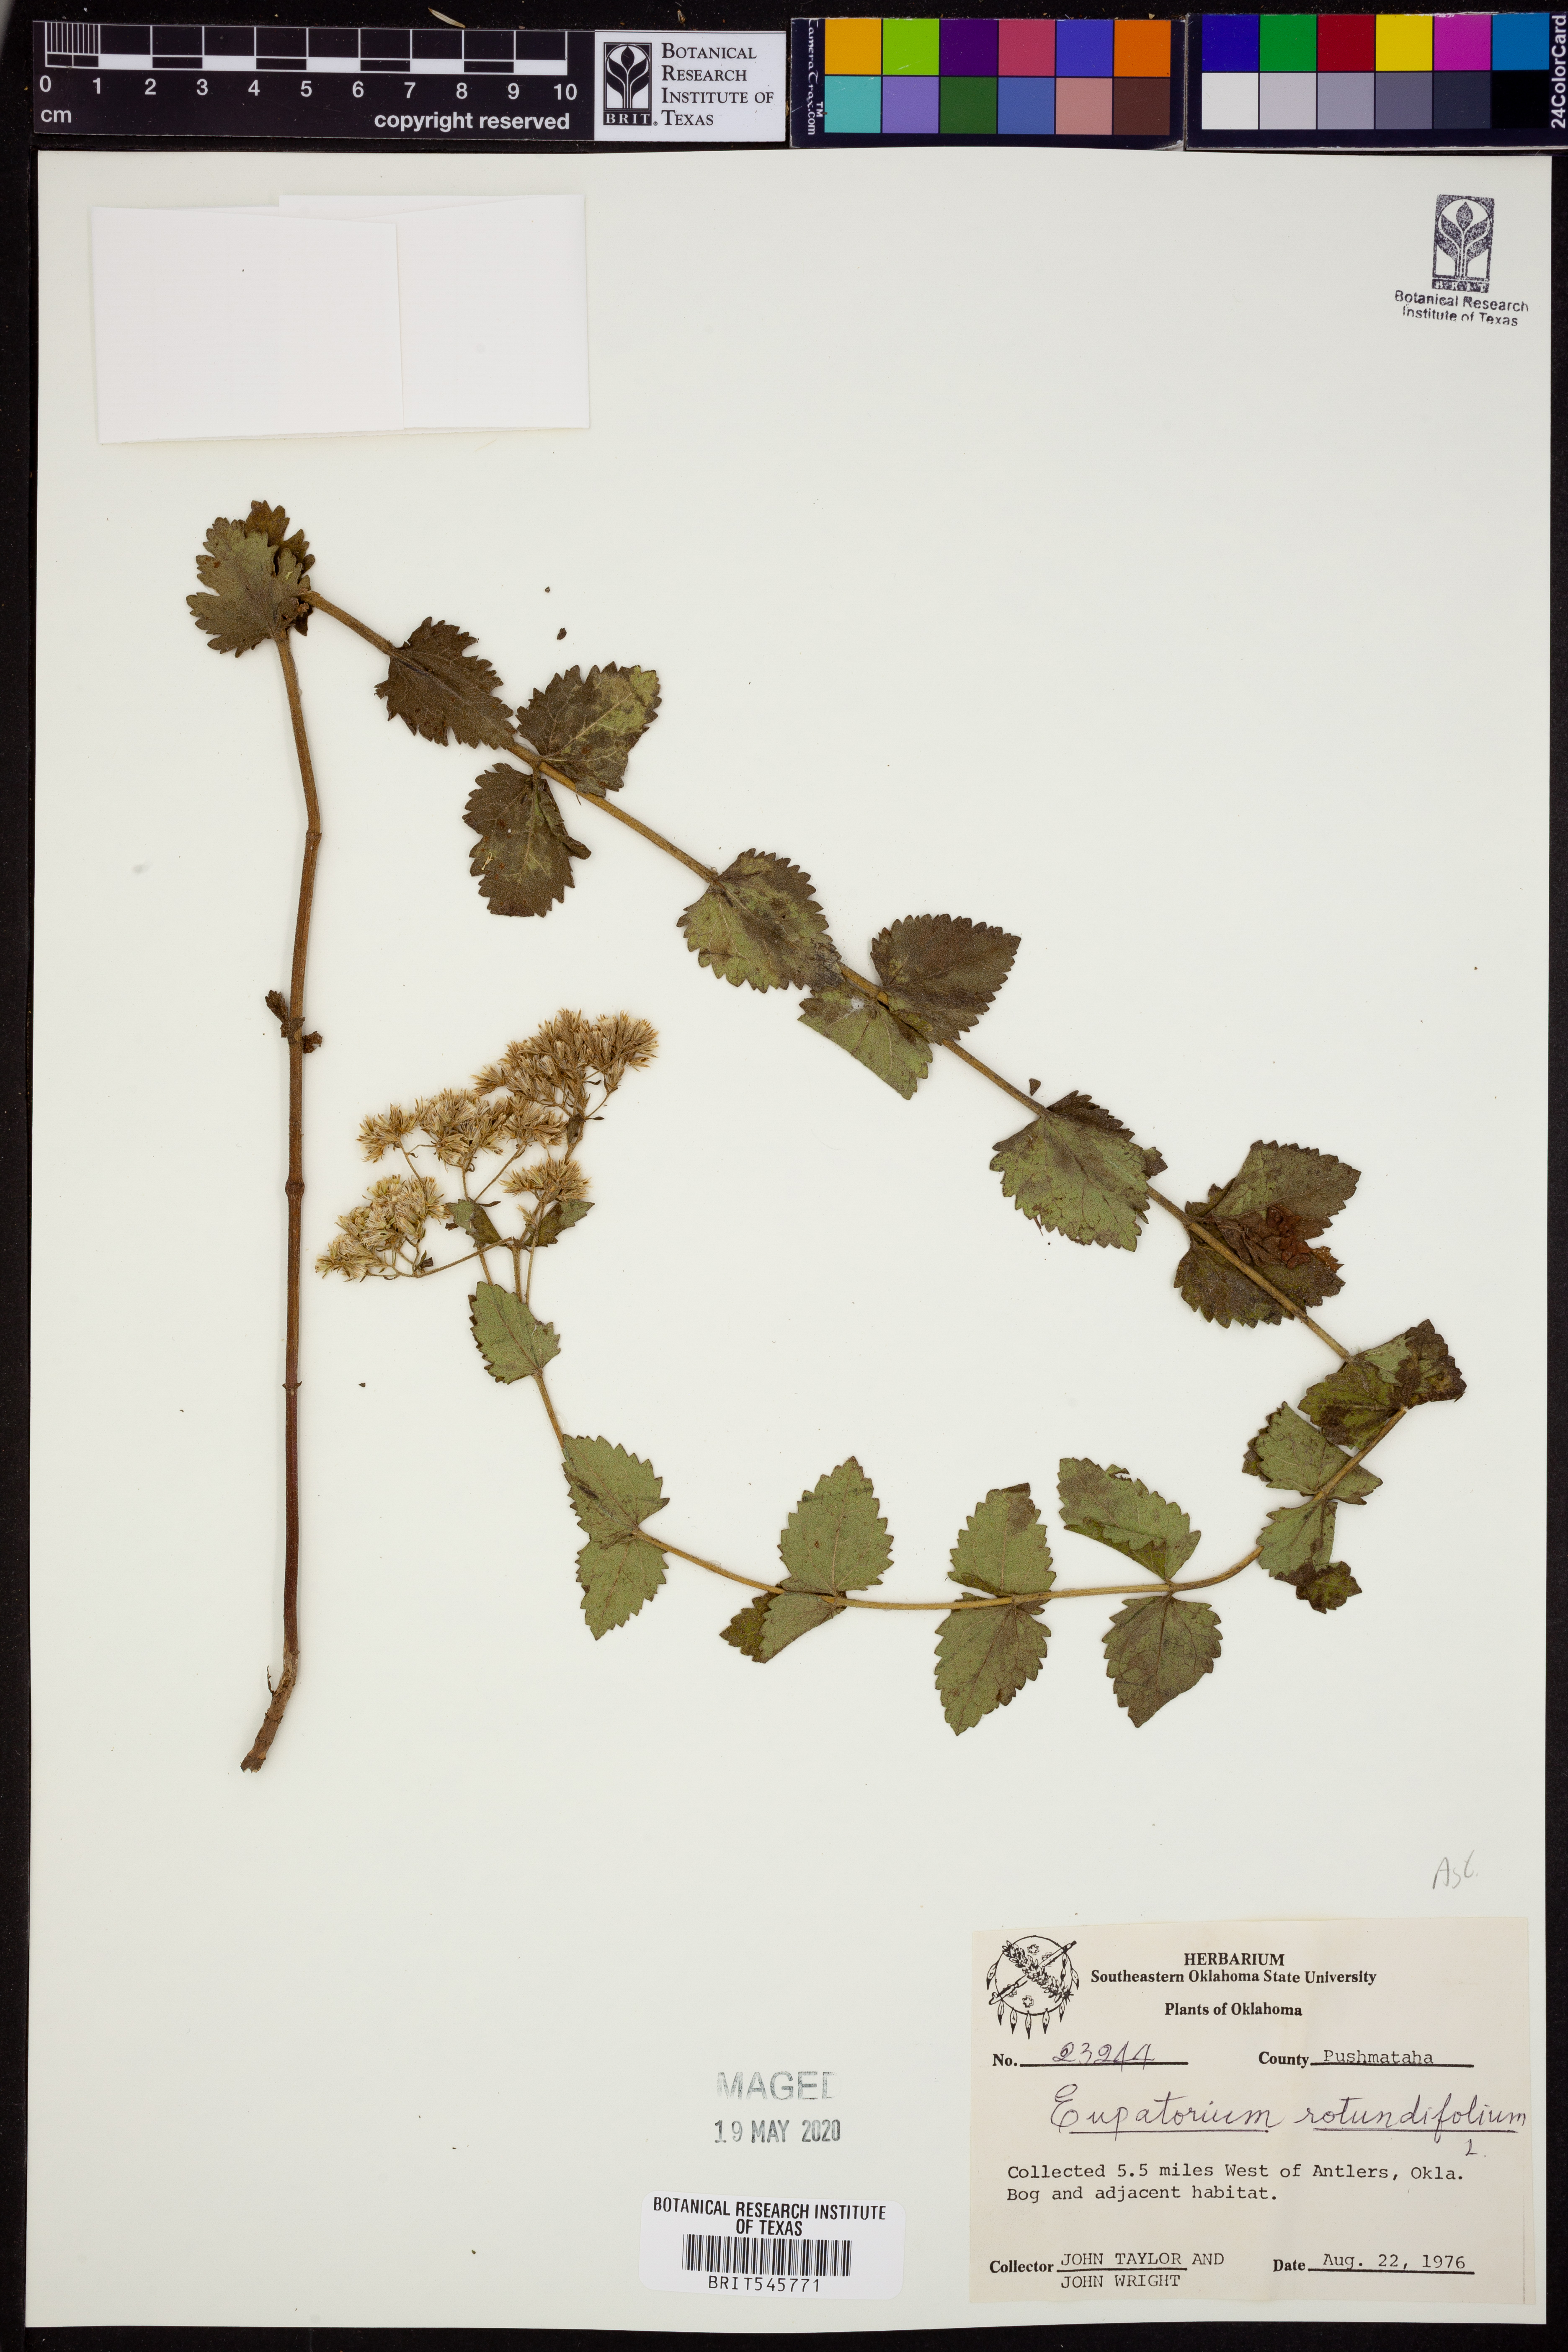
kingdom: Plantae
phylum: Tracheophyta
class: Magnoliopsida
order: Asterales
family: Asteraceae
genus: Eupatorium
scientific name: Eupatorium rotundifolium
